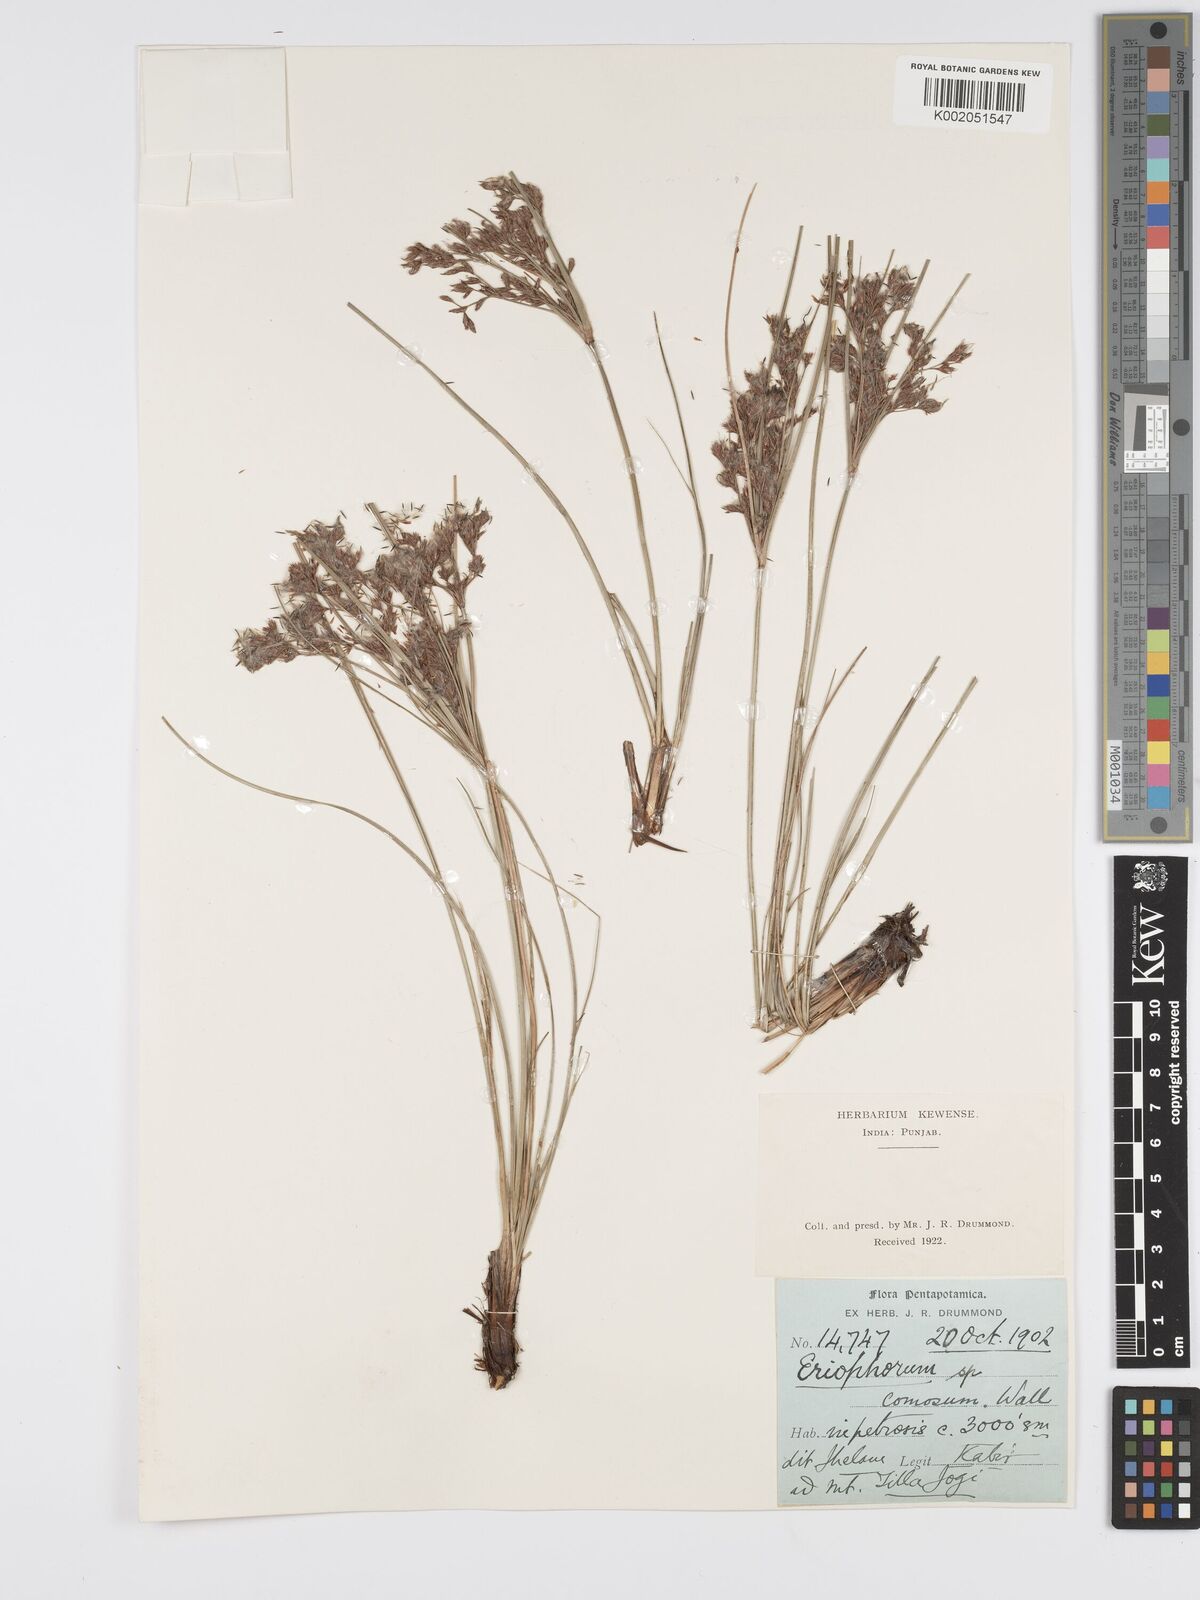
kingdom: Plantae
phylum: Tracheophyta
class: Liliopsida
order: Poales
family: Cyperaceae
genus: Erioscirpus
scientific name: Erioscirpus comosus
